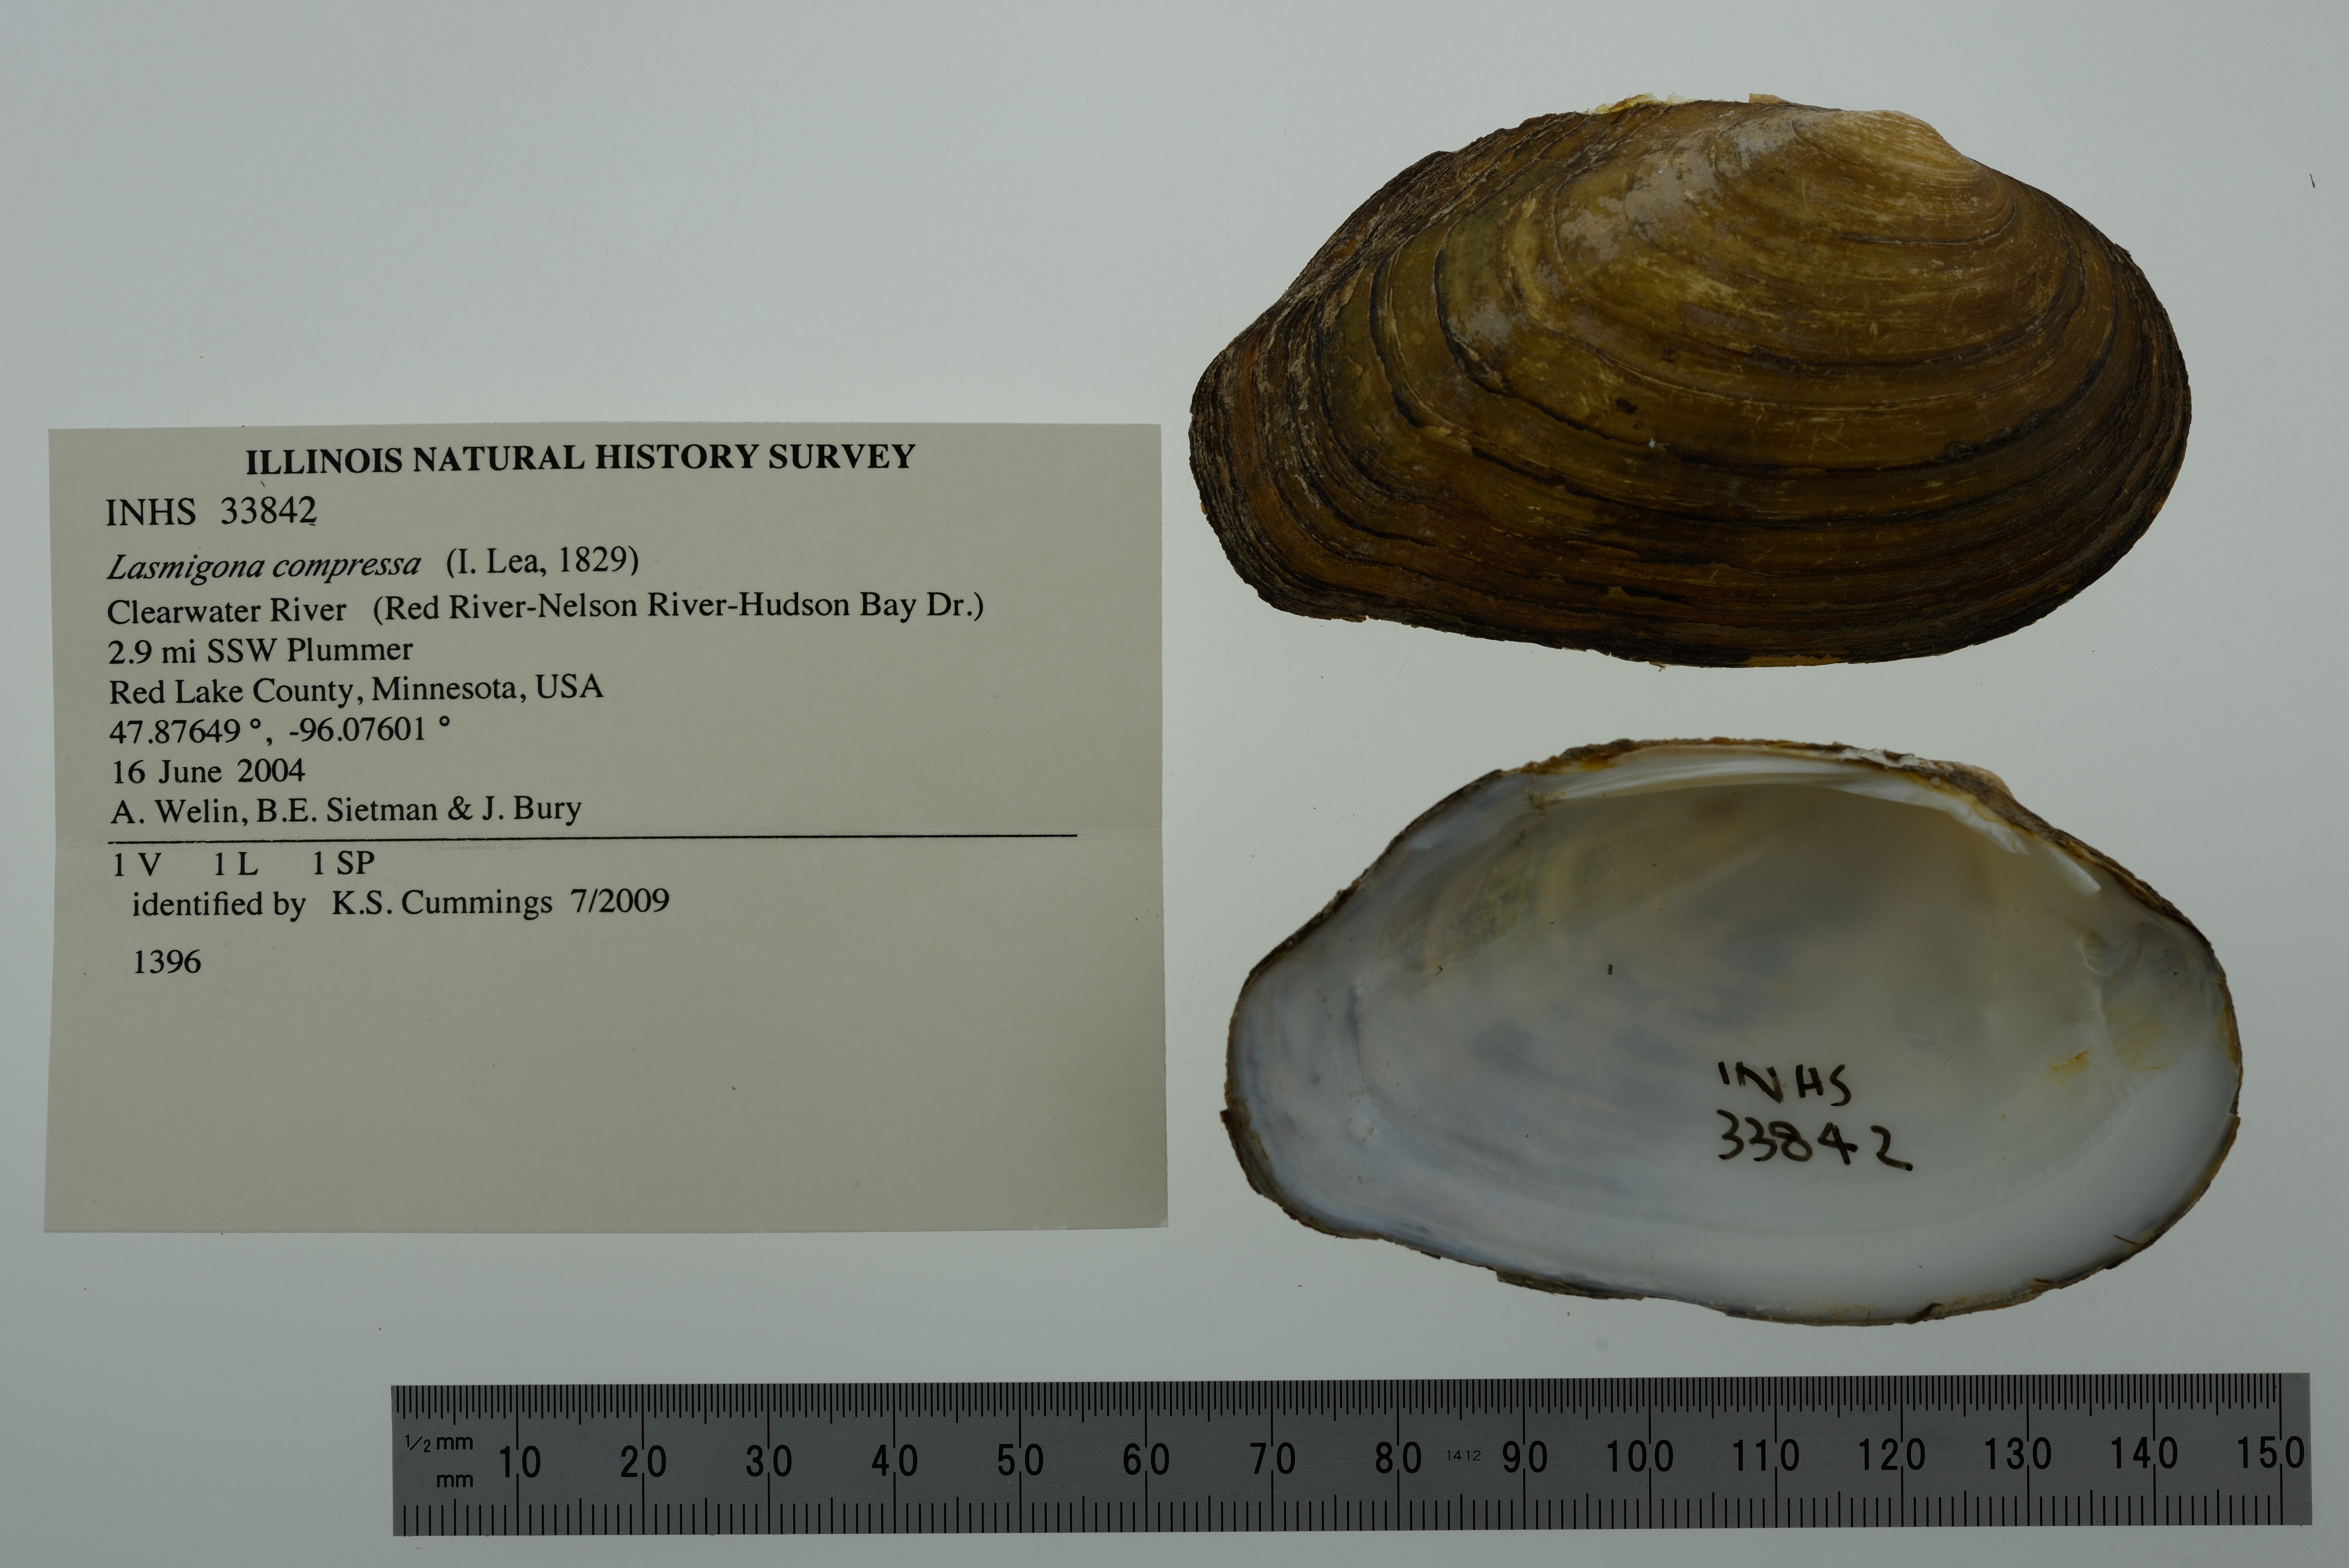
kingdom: Animalia
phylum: Mollusca
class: Bivalvia
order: Unionida
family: Unionidae
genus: Lasmigona
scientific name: Lasmigona compressa
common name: Creek heelsplitter
